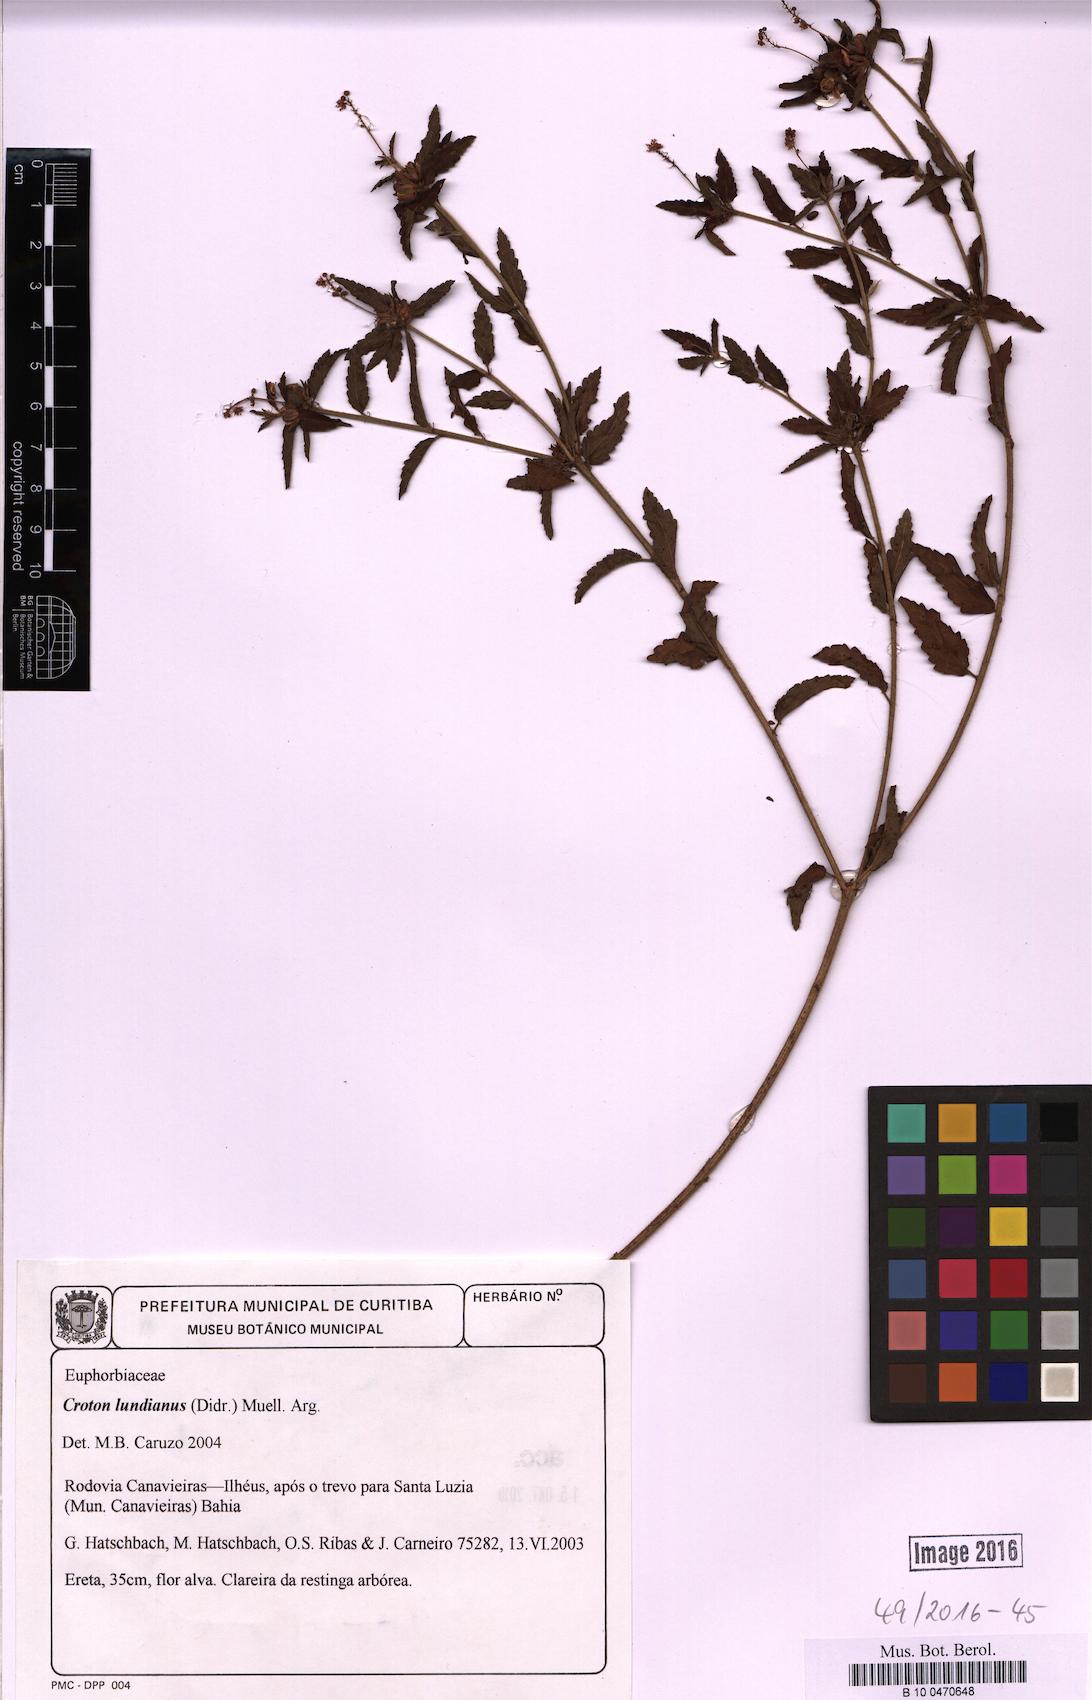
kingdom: Plantae
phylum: Tracheophyta
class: Magnoliopsida
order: Malpighiales
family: Euphorbiaceae
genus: Croton
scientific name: Croton lundianus
